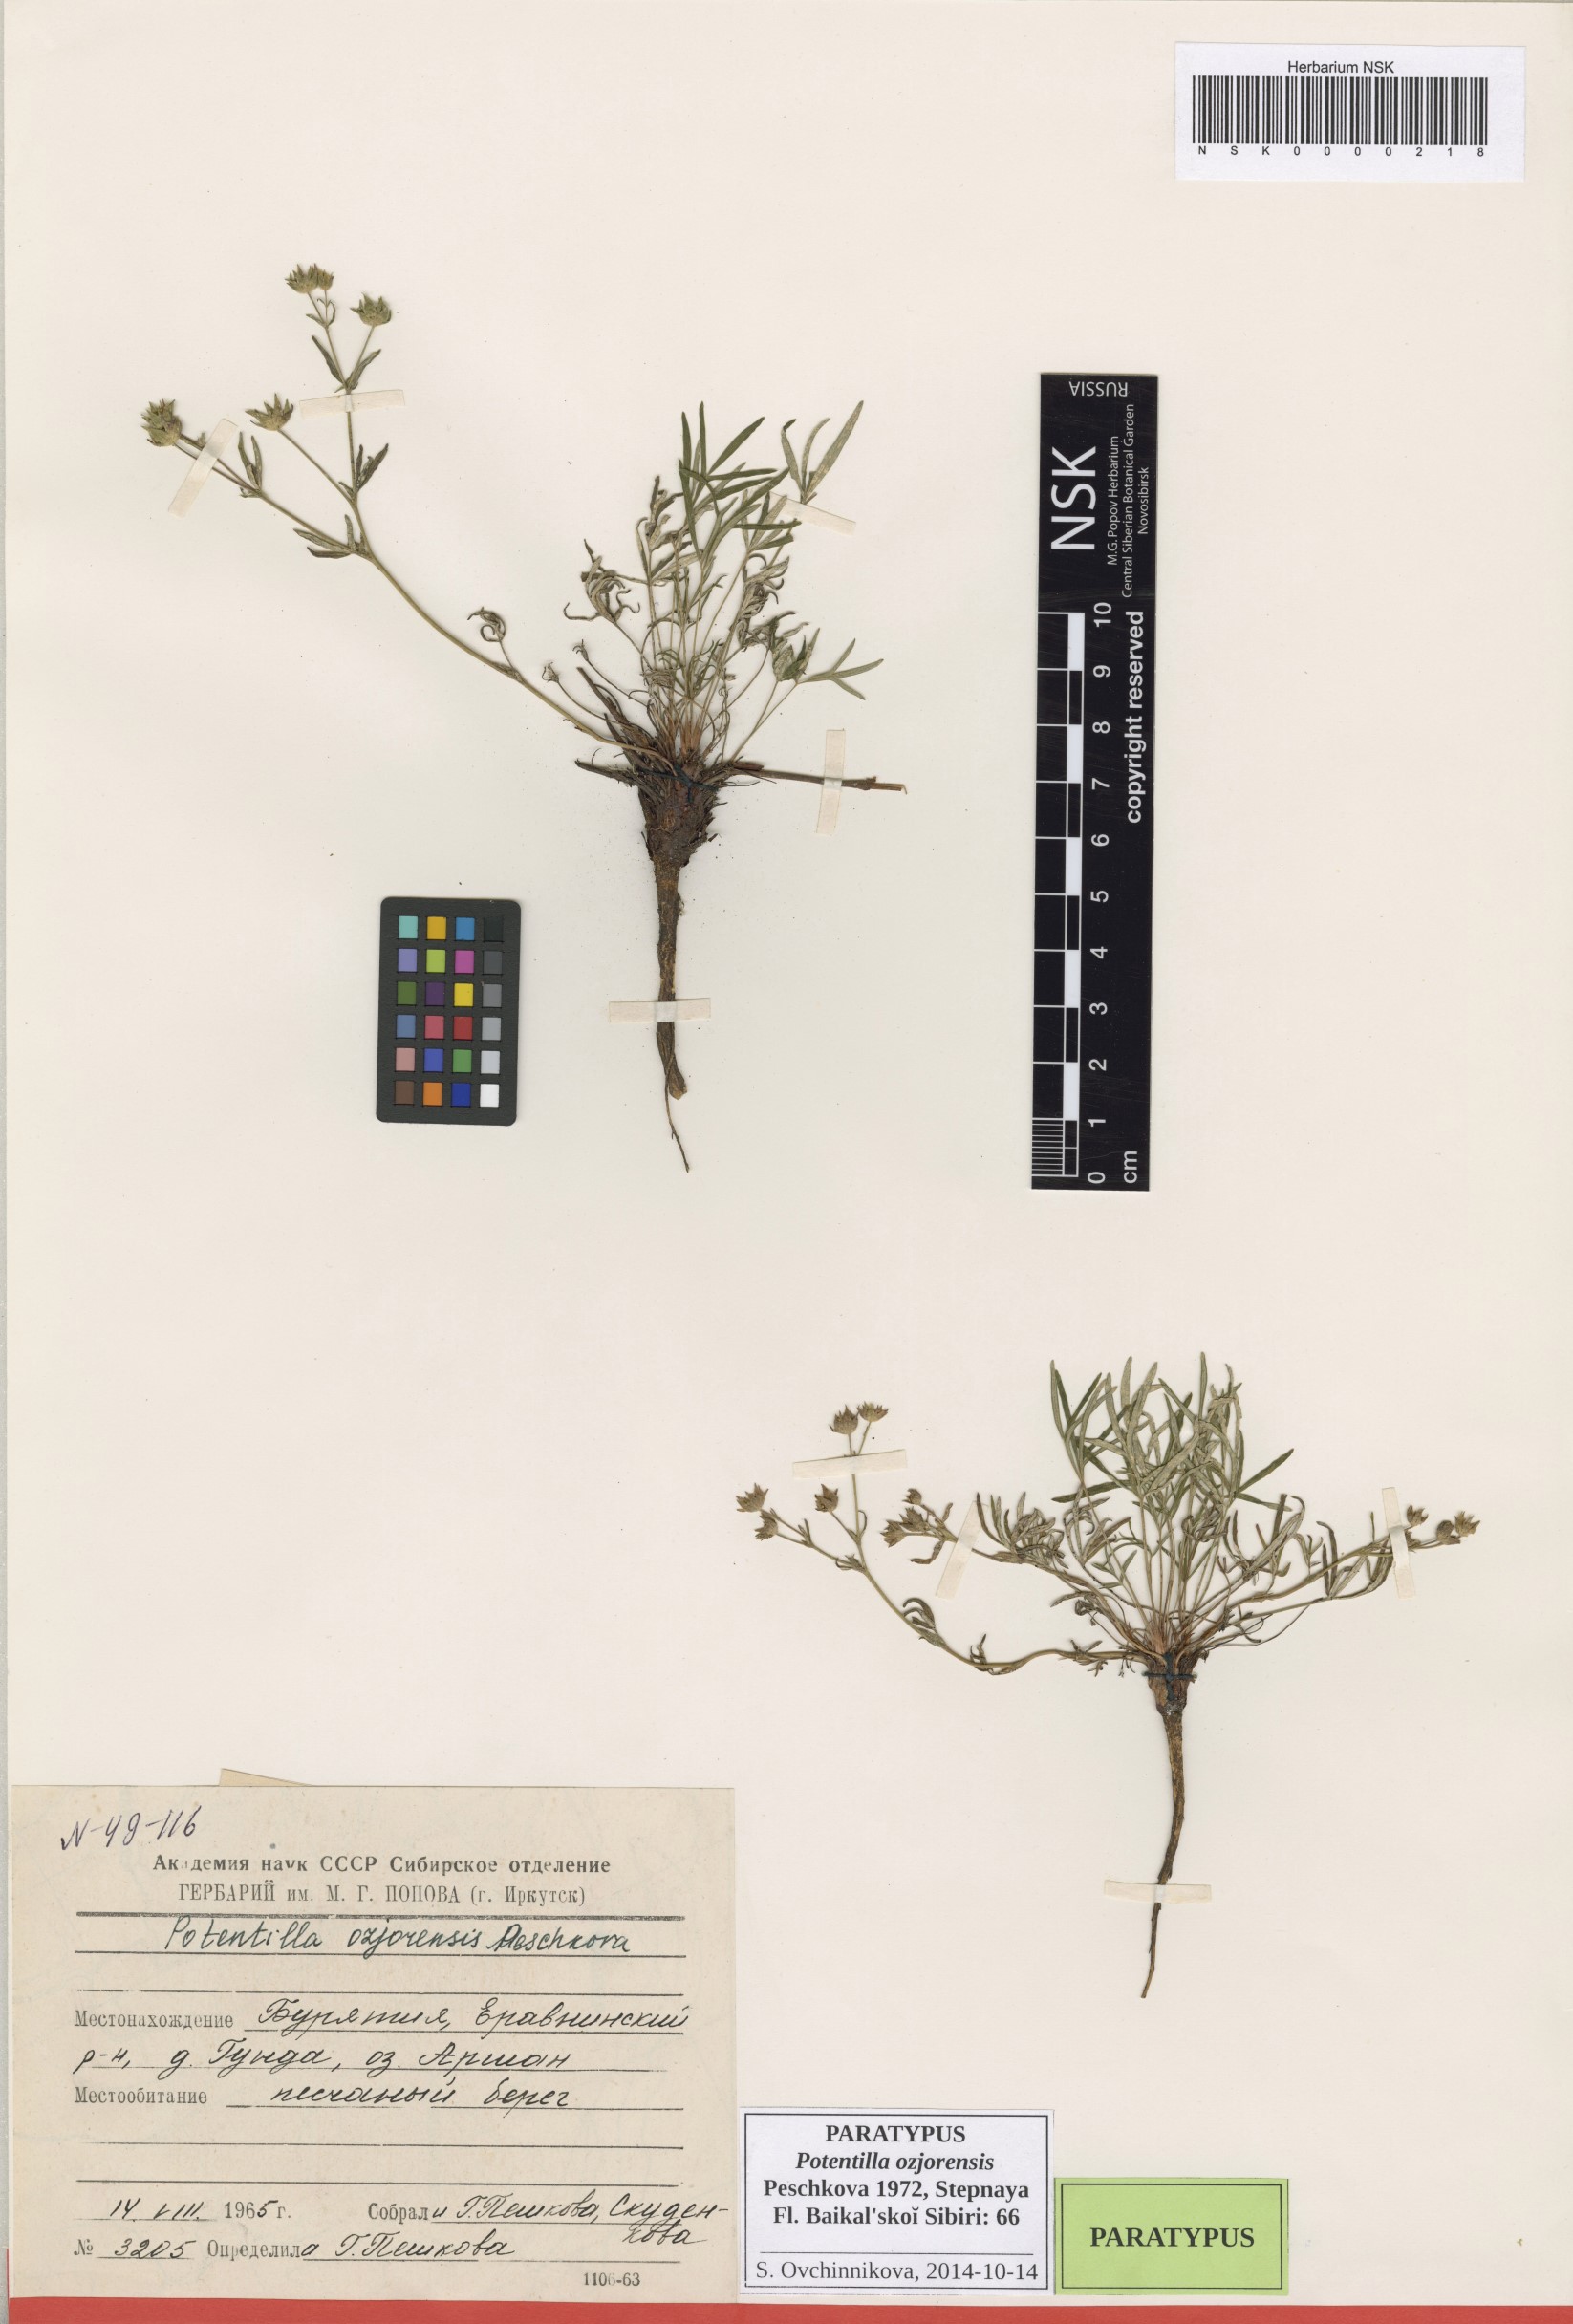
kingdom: Plantae
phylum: Tracheophyta
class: Magnoliopsida
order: Rosales
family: Rosaceae
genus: Potentilla
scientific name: Potentilla ozjorensis
